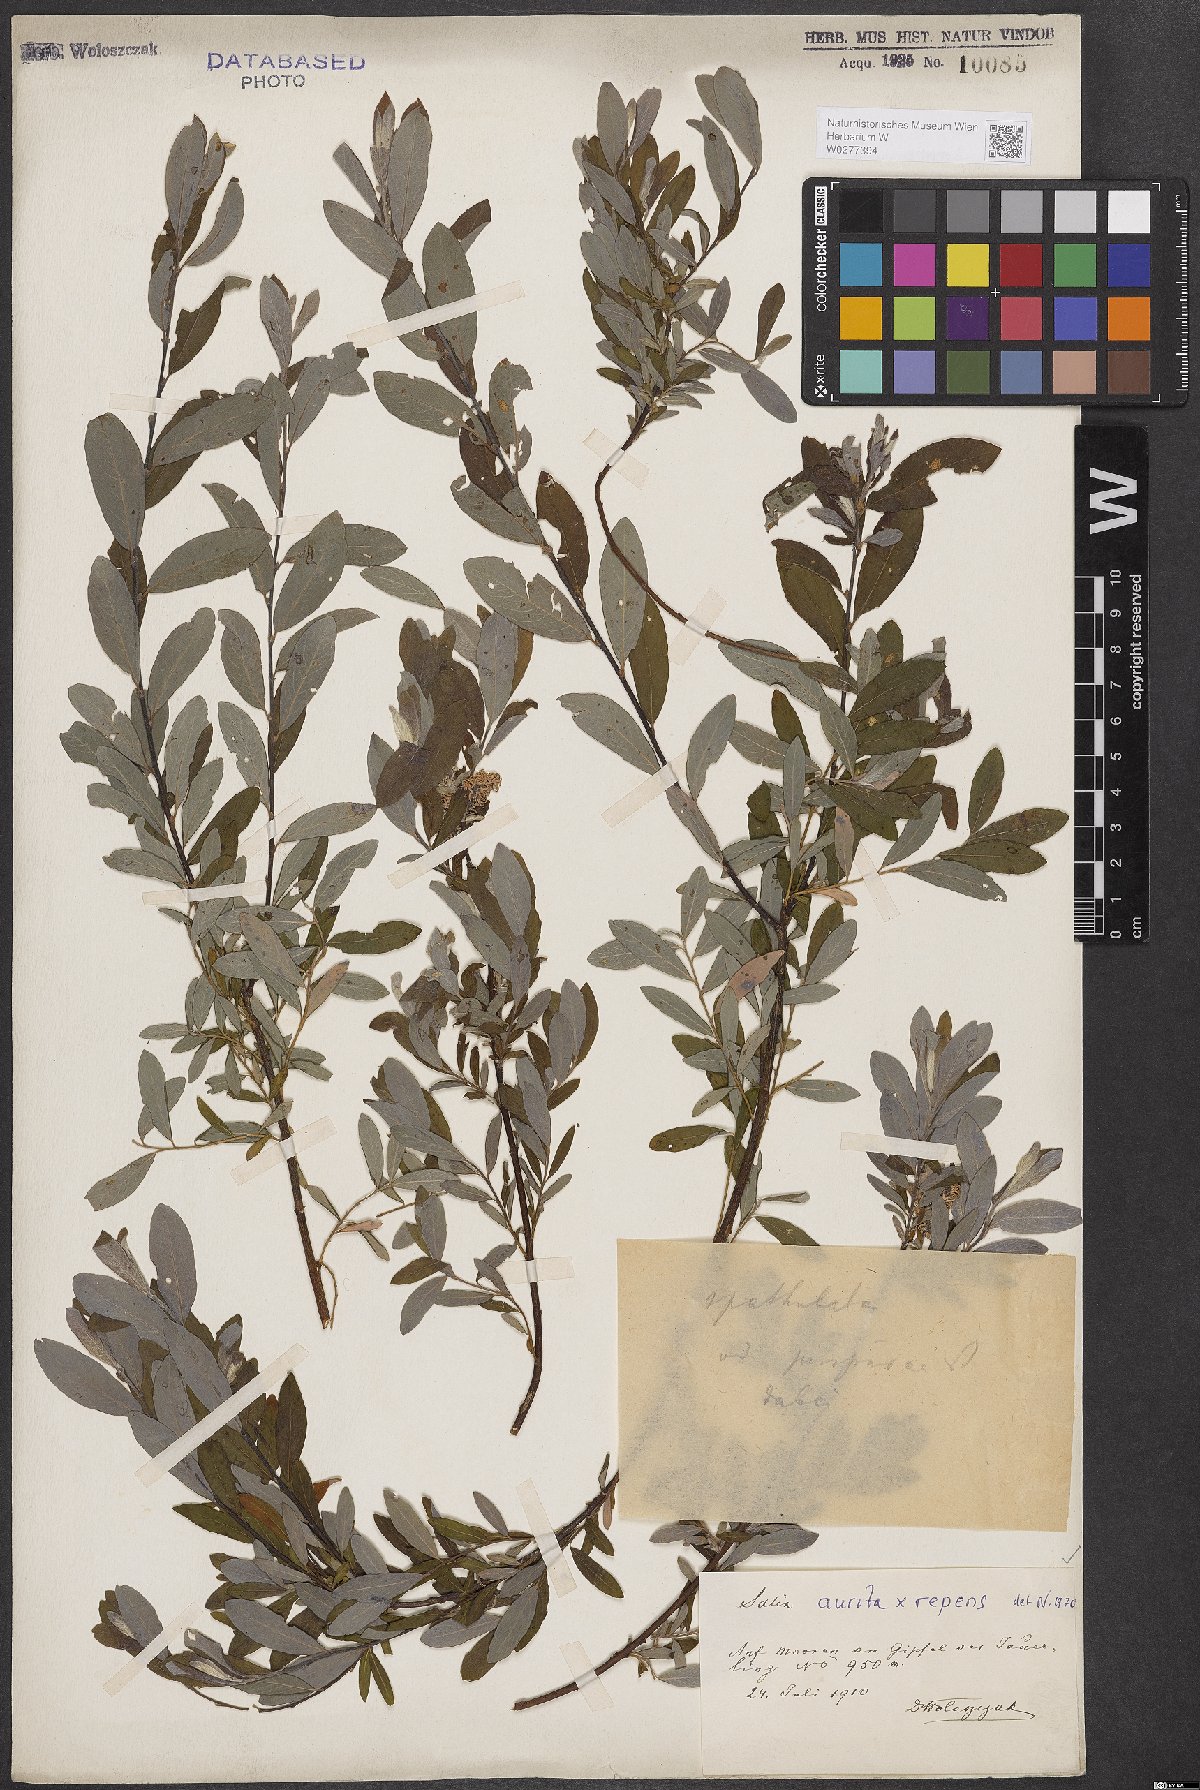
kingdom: Plantae
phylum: Tracheophyta
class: Magnoliopsida
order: Malpighiales
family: Salicaceae
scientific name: Salicaceae
